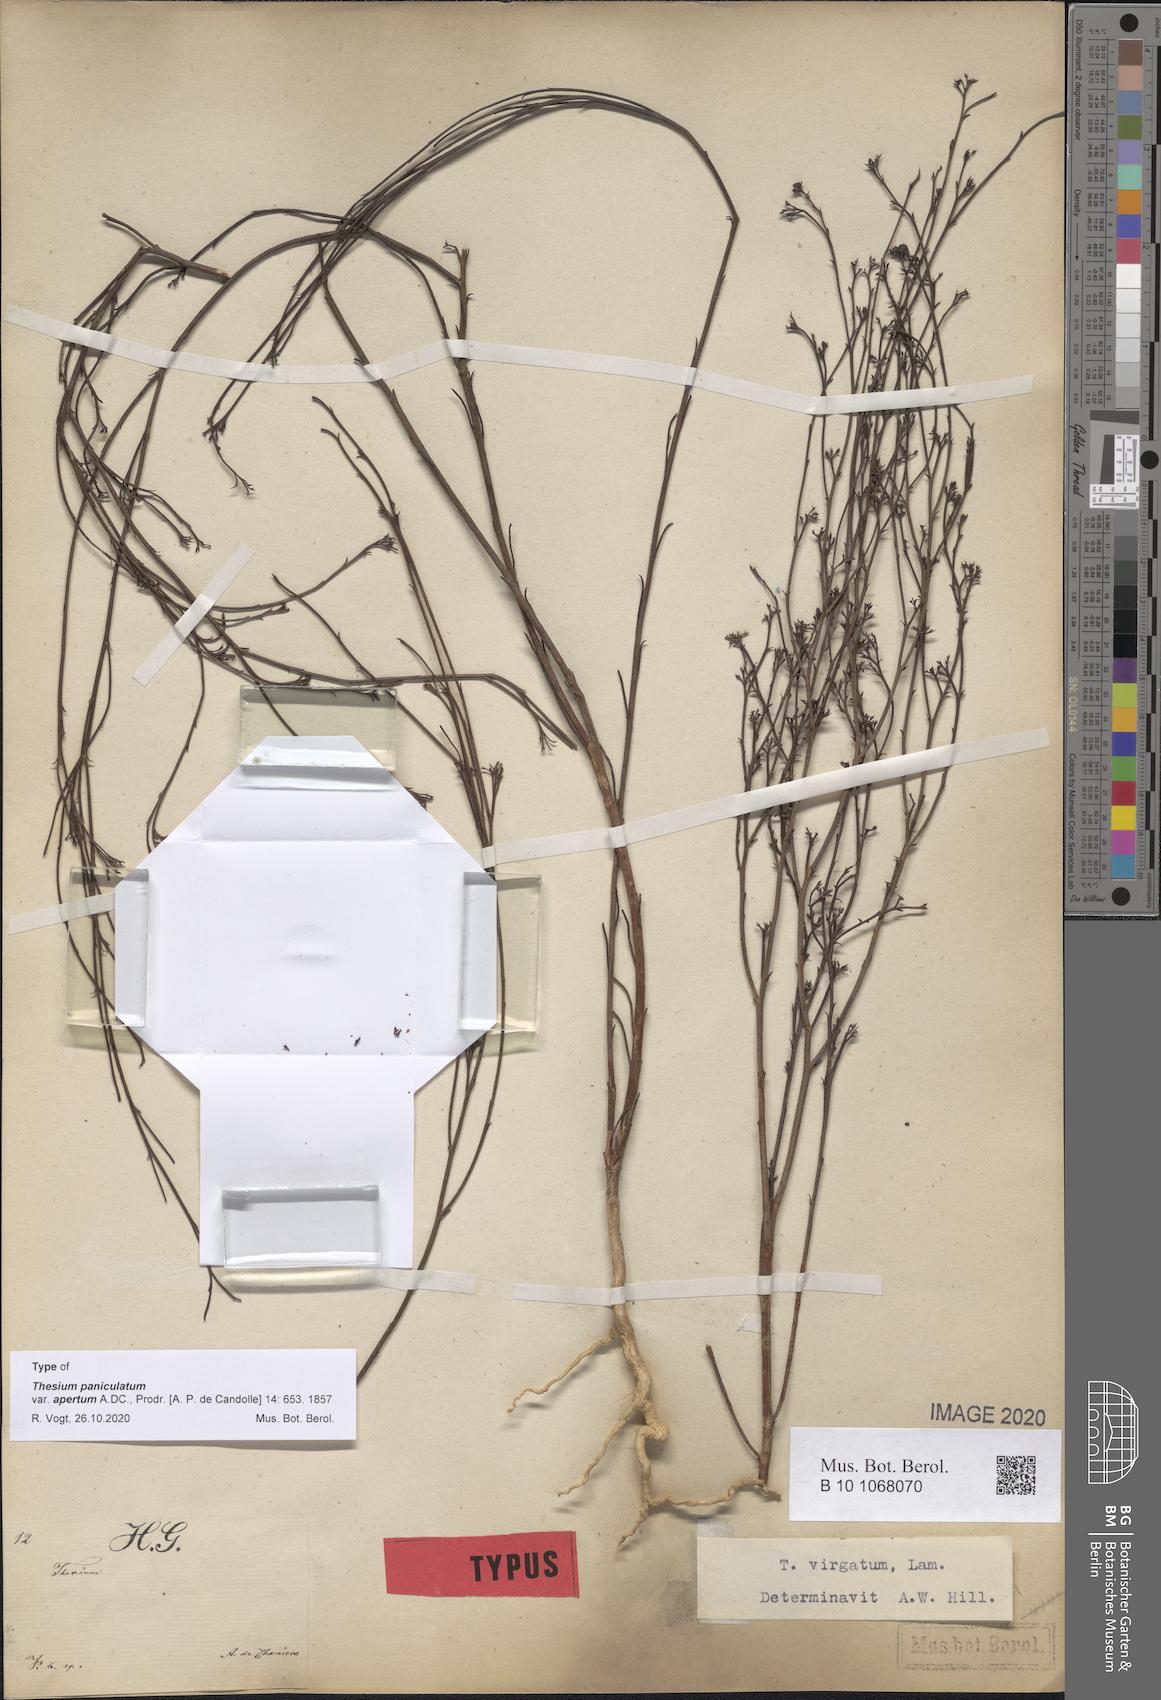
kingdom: Plantae
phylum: Tracheophyta
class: Magnoliopsida
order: Santalales
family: Thesiaceae
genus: Thesium
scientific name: Thesium virgatum
